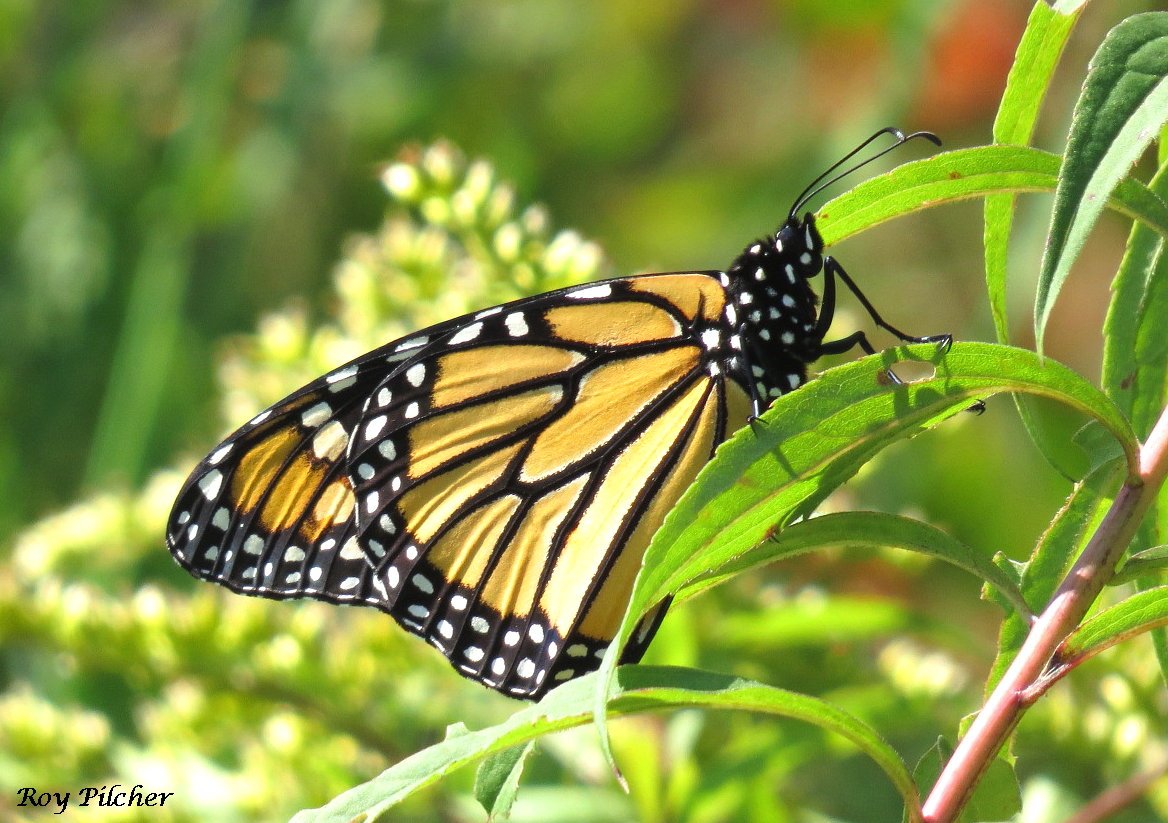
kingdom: Animalia
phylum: Arthropoda
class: Insecta
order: Lepidoptera
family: Nymphalidae
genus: Danaus
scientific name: Danaus plexippus
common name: Monarch
